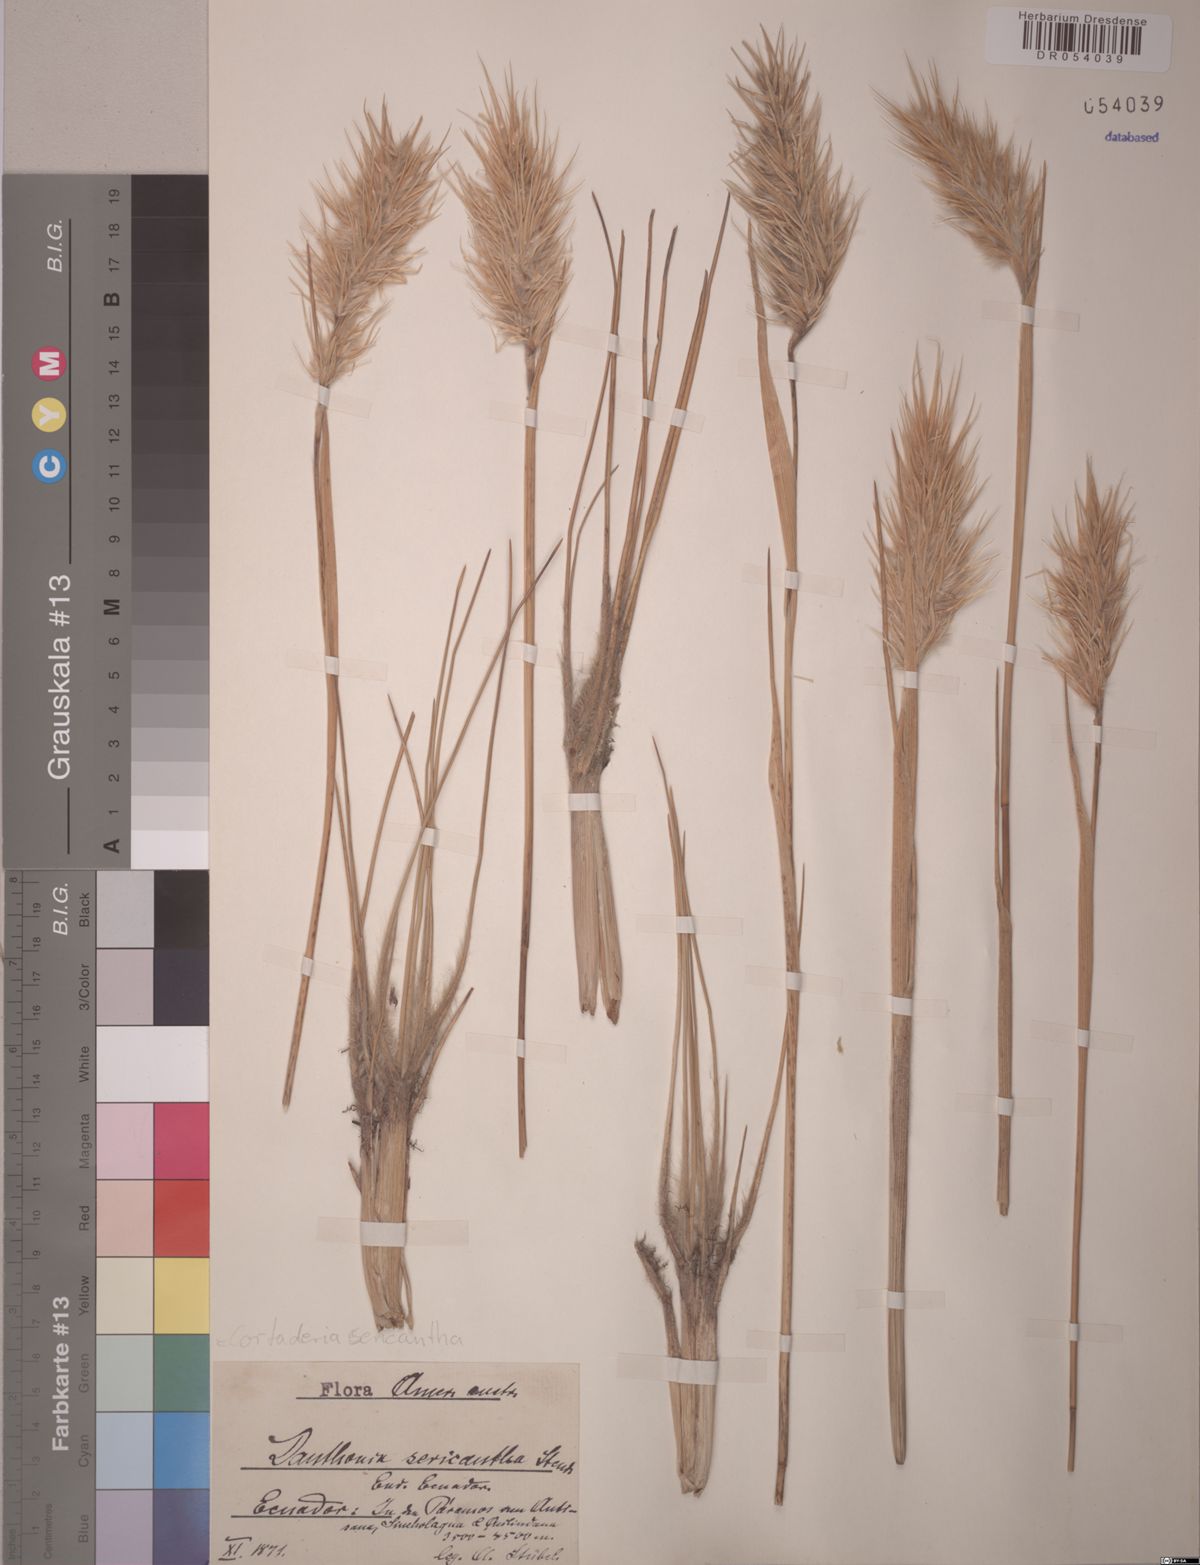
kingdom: Plantae
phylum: Tracheophyta
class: Liliopsida
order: Poales
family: Poaceae
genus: Cortaderia
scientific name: Cortaderia sericantha
